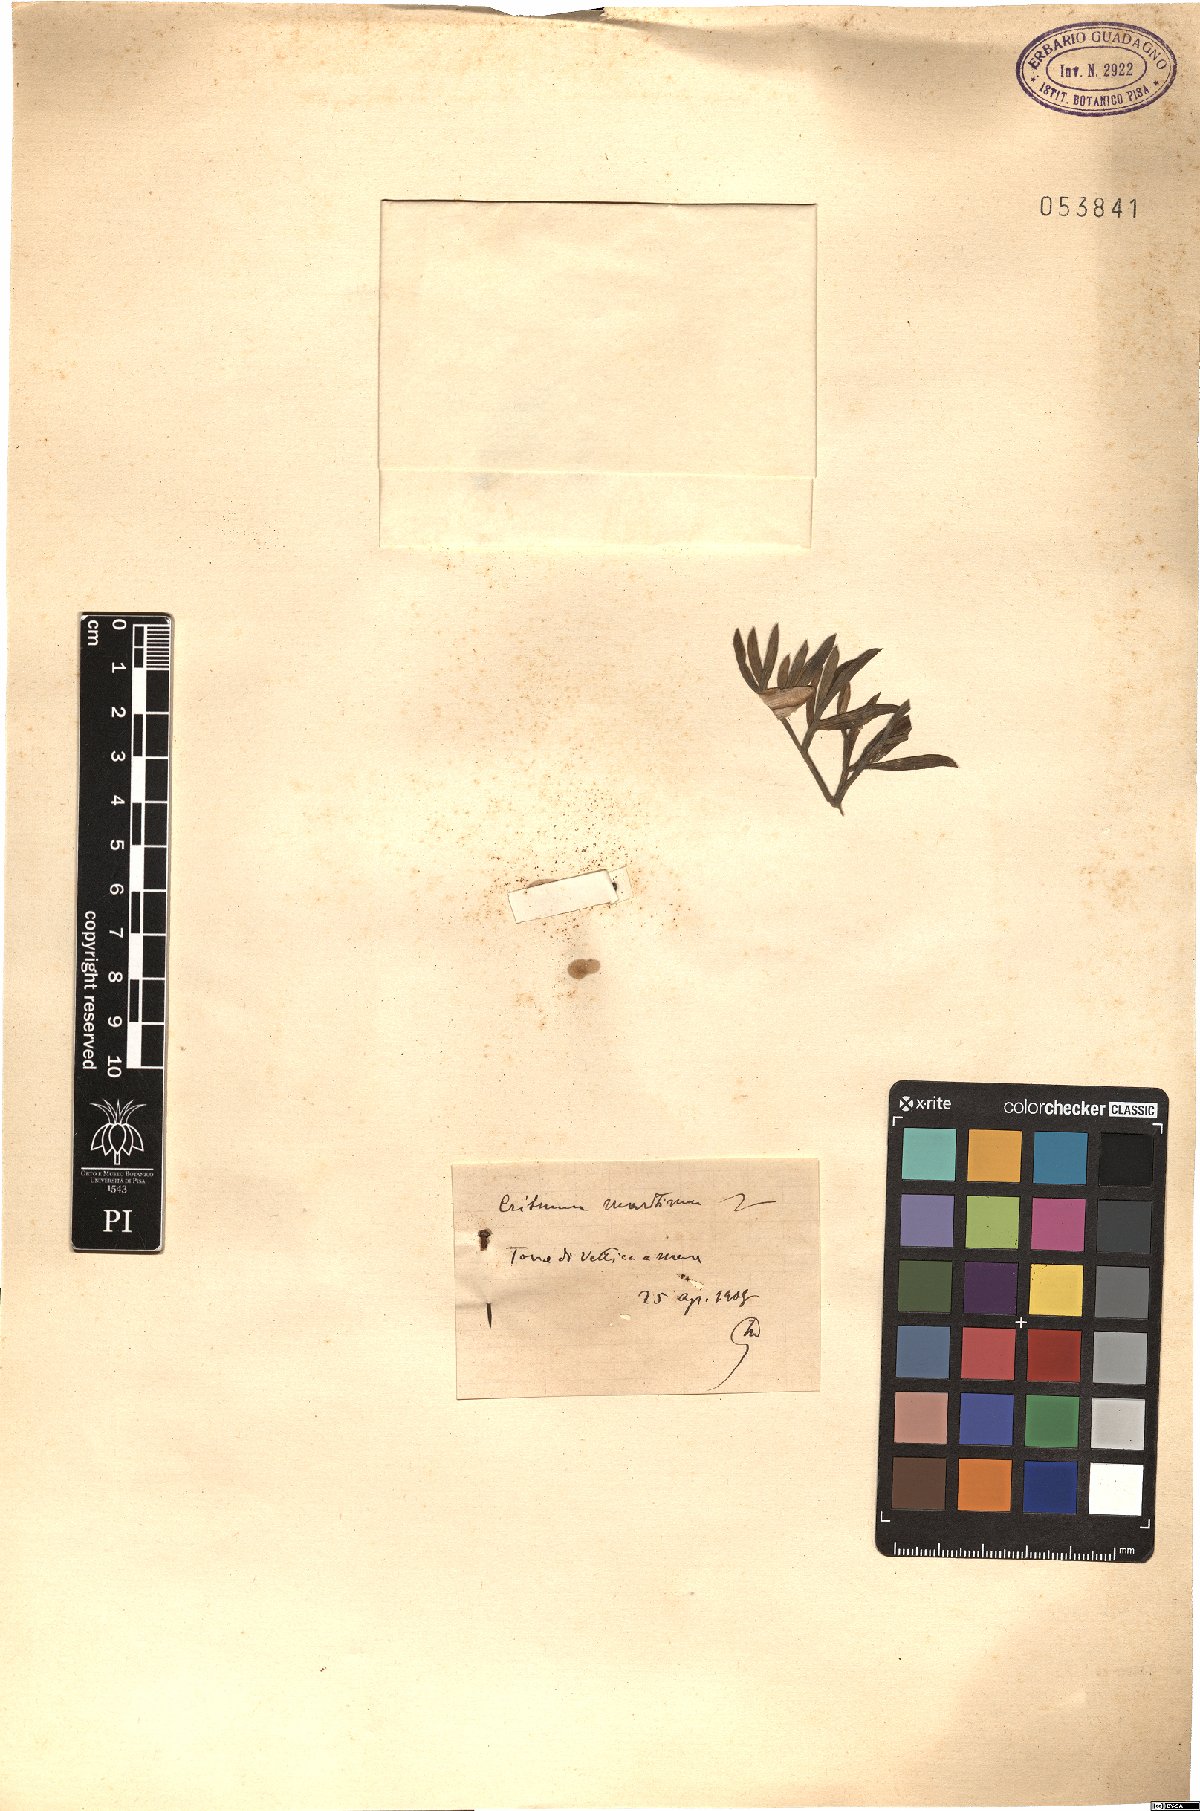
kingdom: Plantae
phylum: Tracheophyta
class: Magnoliopsida
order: Apiales
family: Apiaceae
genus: Crithmum
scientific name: Crithmum maritimum
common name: Rock samphire
